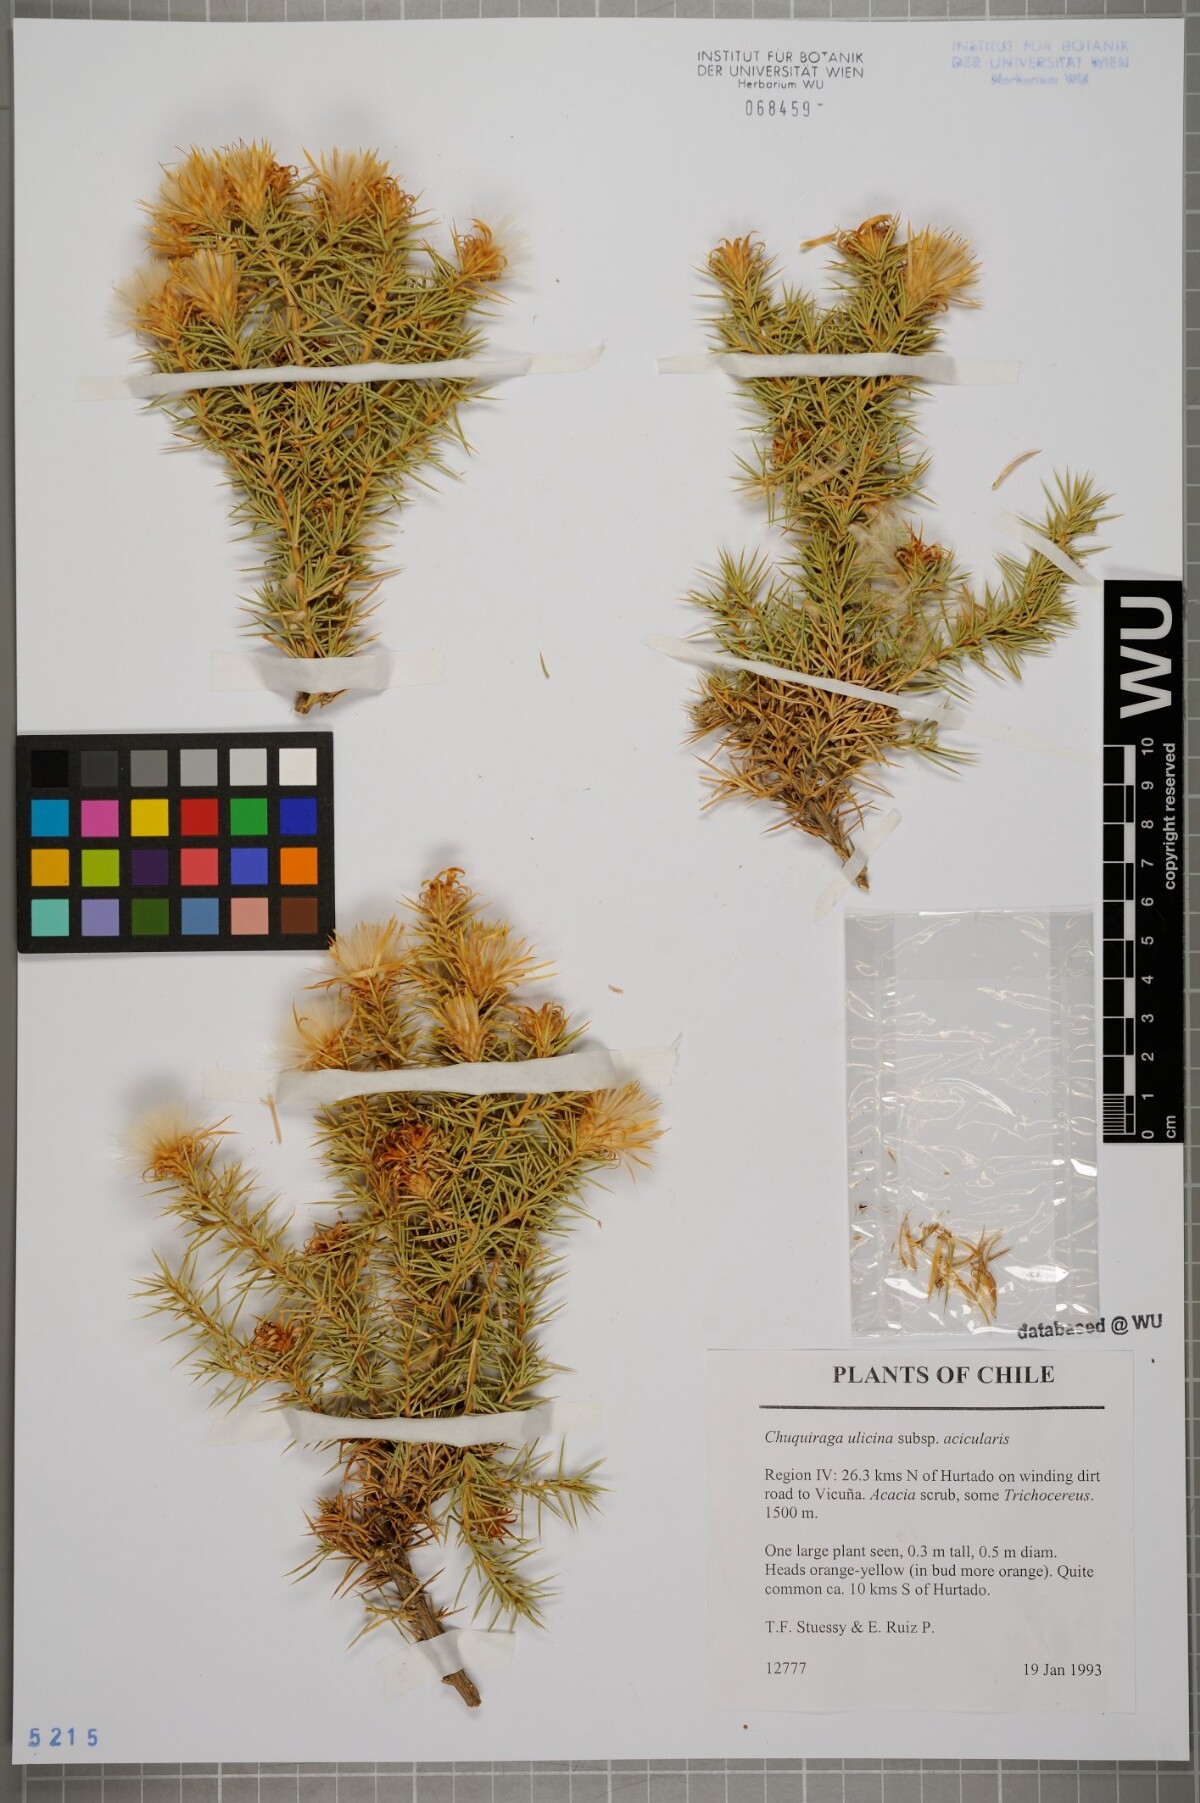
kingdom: Plantae
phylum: Tracheophyta
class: Magnoliopsida
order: Asterales
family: Asteraceae
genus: Chuquiraga
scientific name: Chuquiraga ulicina
